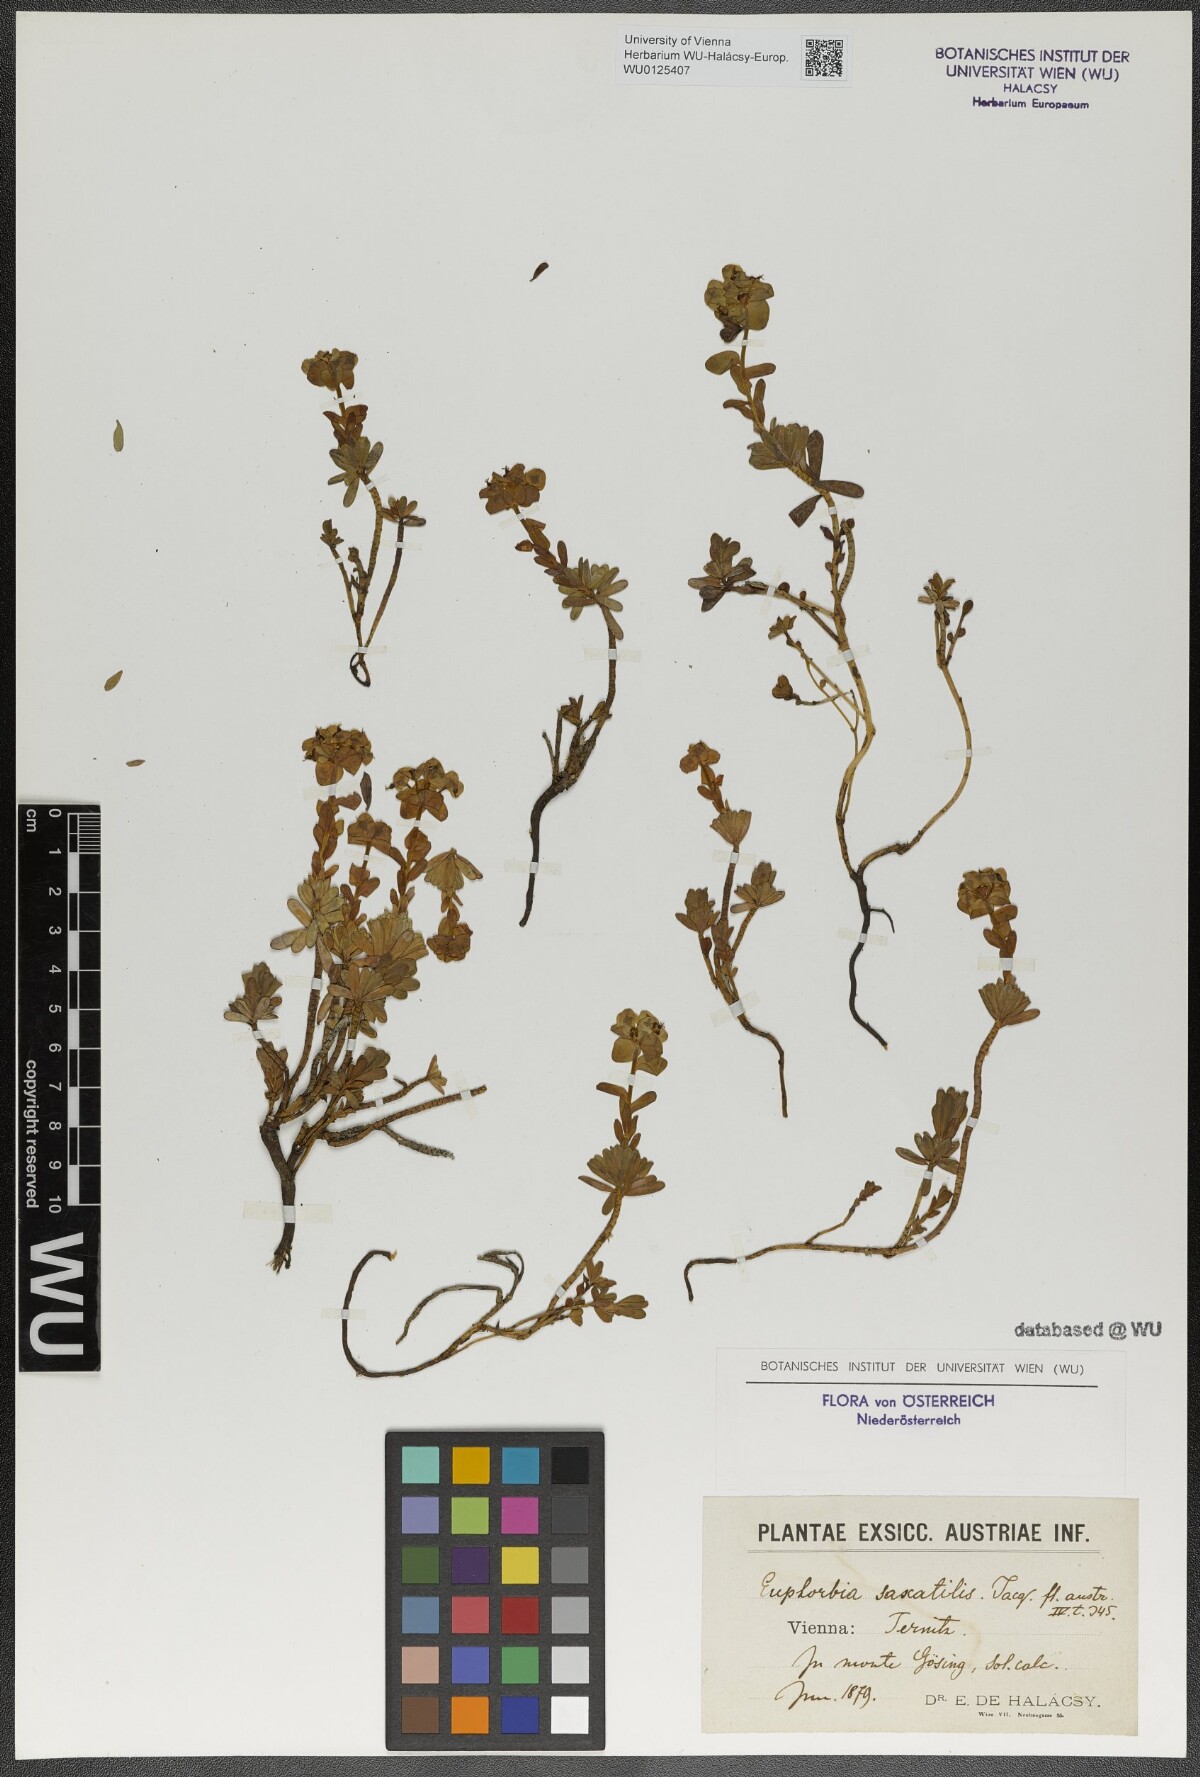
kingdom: Plantae
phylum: Tracheophyta
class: Magnoliopsida
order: Malpighiales
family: Euphorbiaceae
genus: Euphorbia
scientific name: Euphorbia saxatilis
